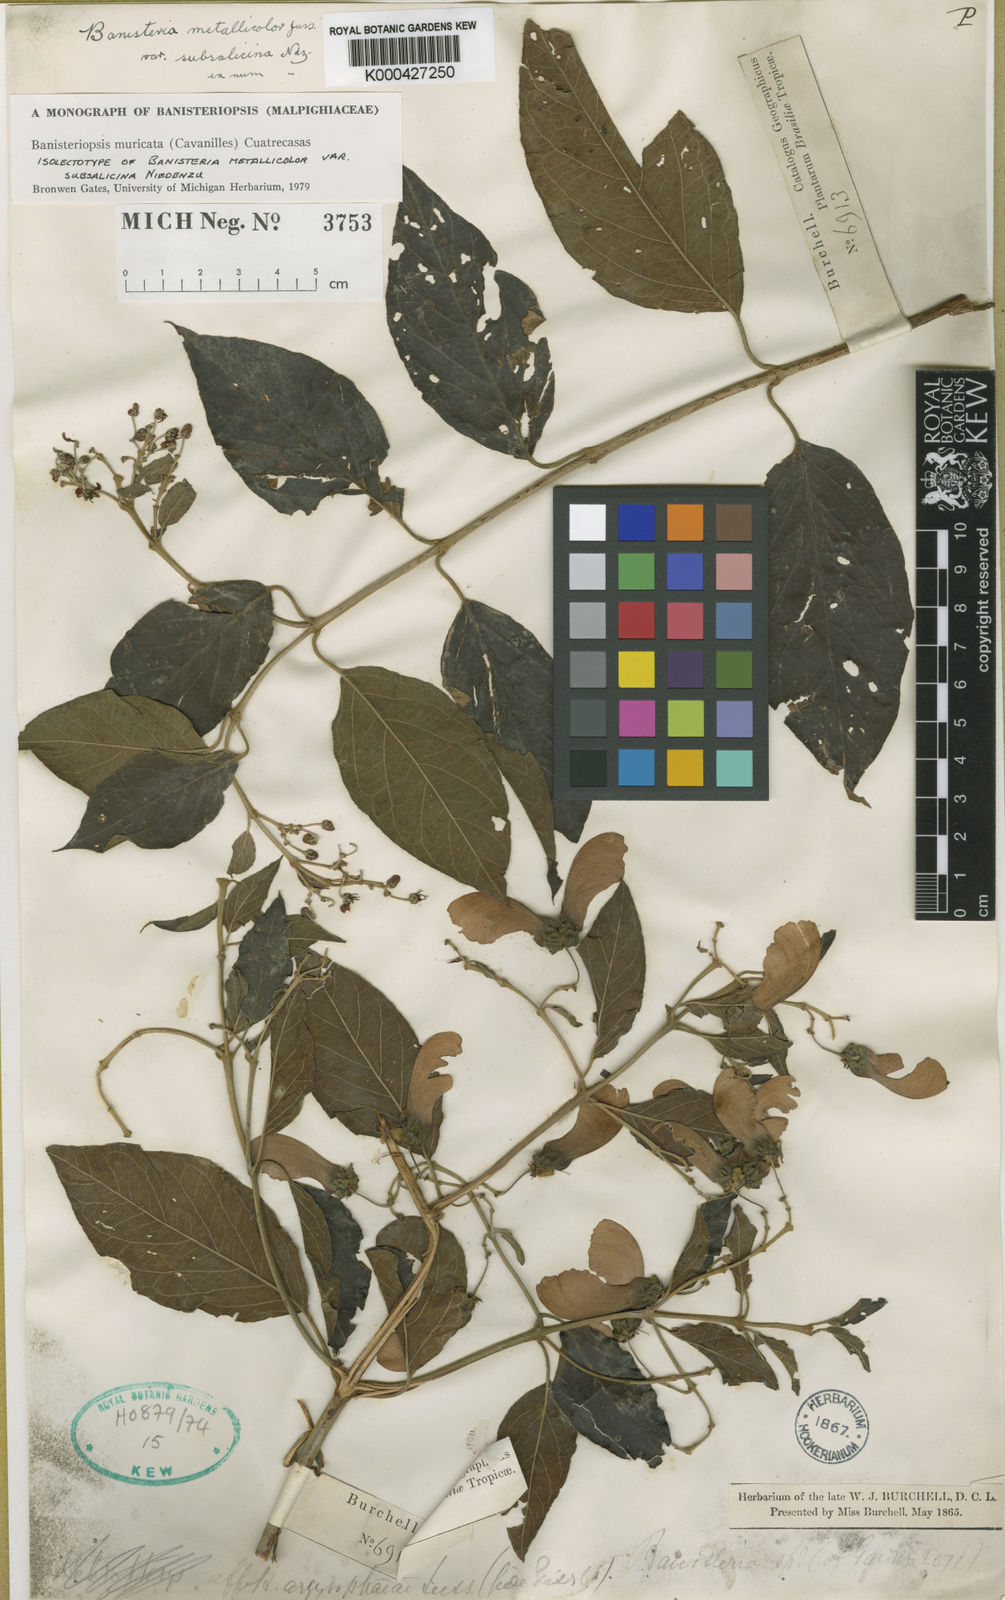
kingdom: Plantae
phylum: Tracheophyta
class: Magnoliopsida
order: Malpighiales
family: Malpighiaceae
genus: Banisteriopsis
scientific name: Banisteriopsis muricata
